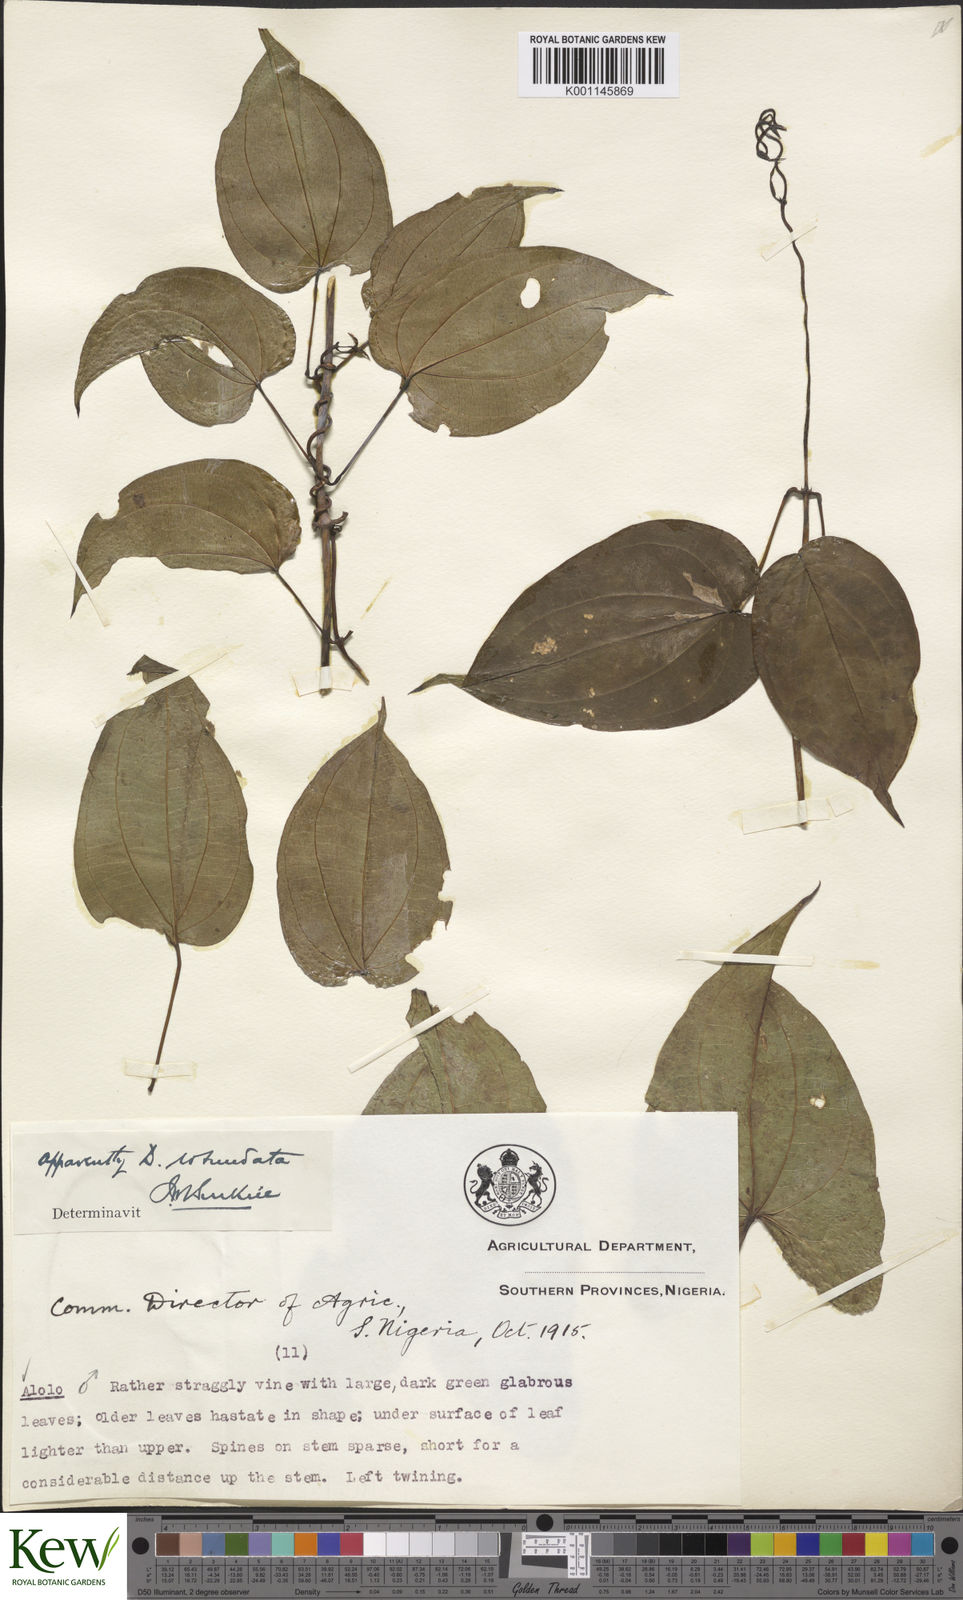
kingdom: Plantae
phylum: Tracheophyta
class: Liliopsida
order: Dioscoreales
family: Dioscoreaceae
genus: Dioscorea
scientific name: Dioscorea cayenensis
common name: Attoto yam
